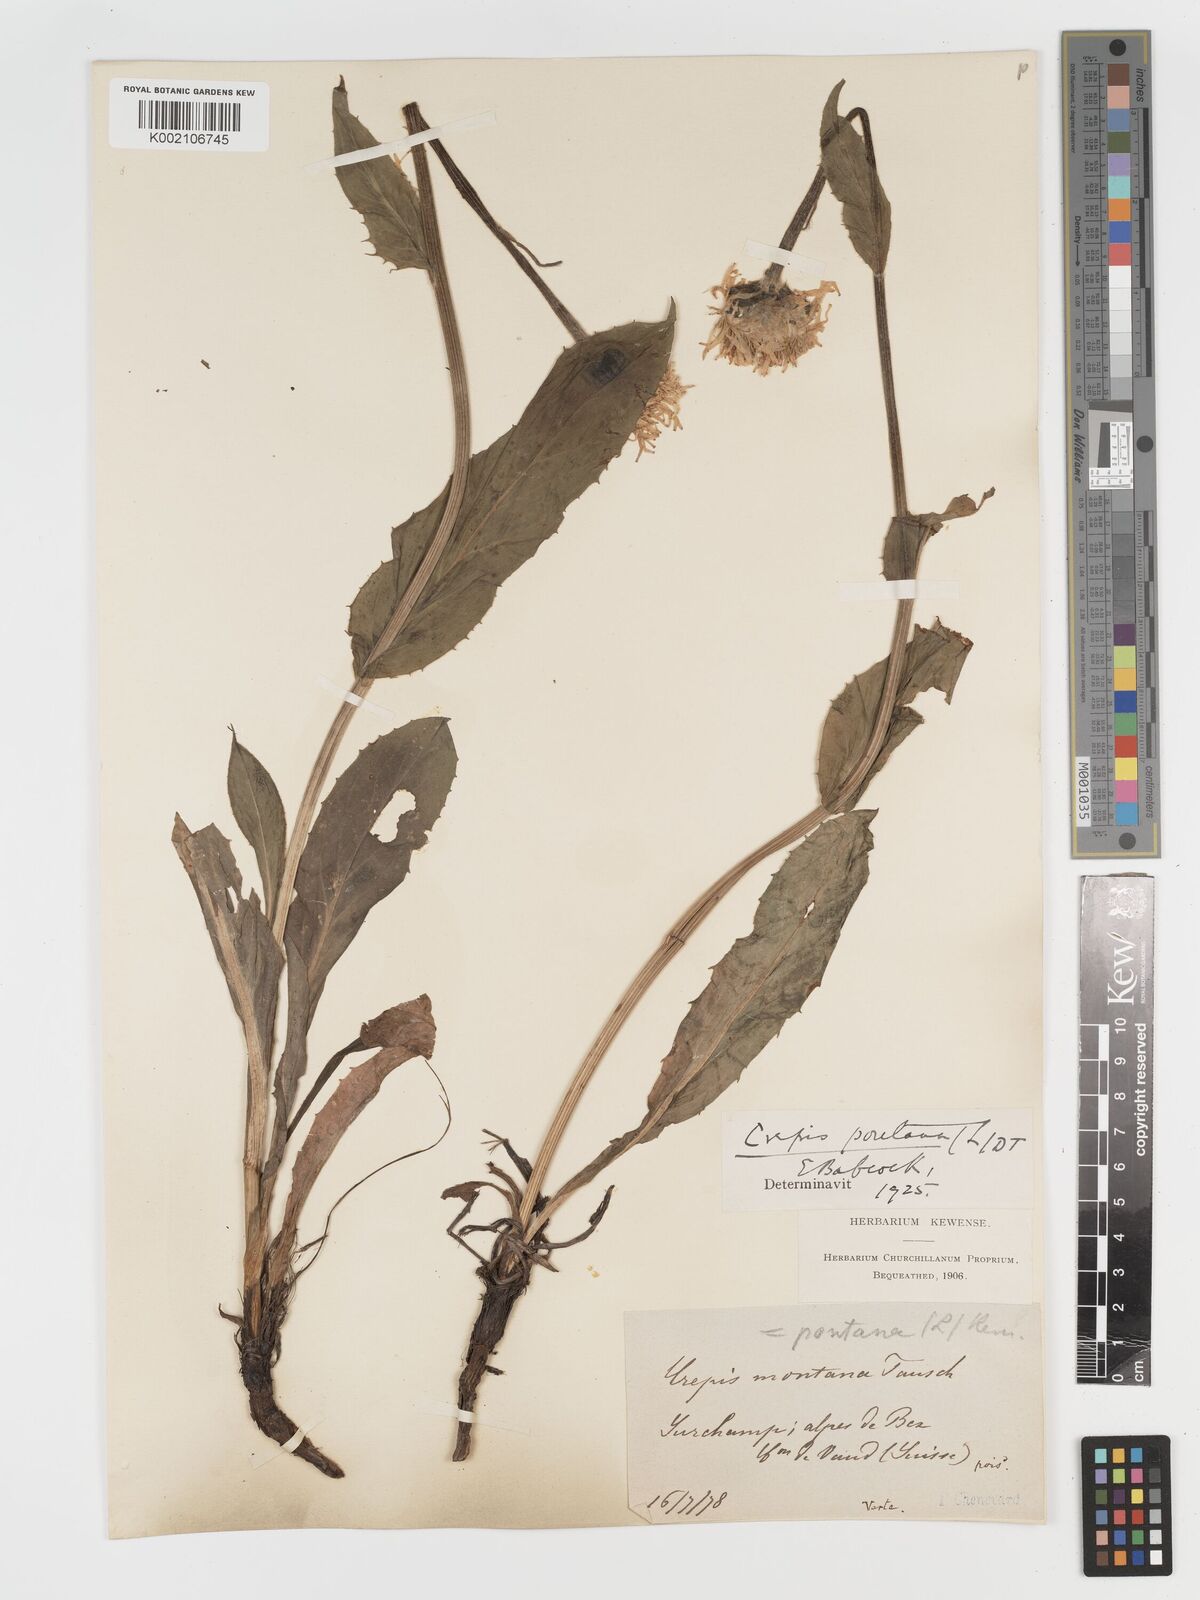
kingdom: Plantae
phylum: Tracheophyta
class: Magnoliopsida
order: Asterales
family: Asteraceae
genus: Crepis
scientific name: Crepis pontana
